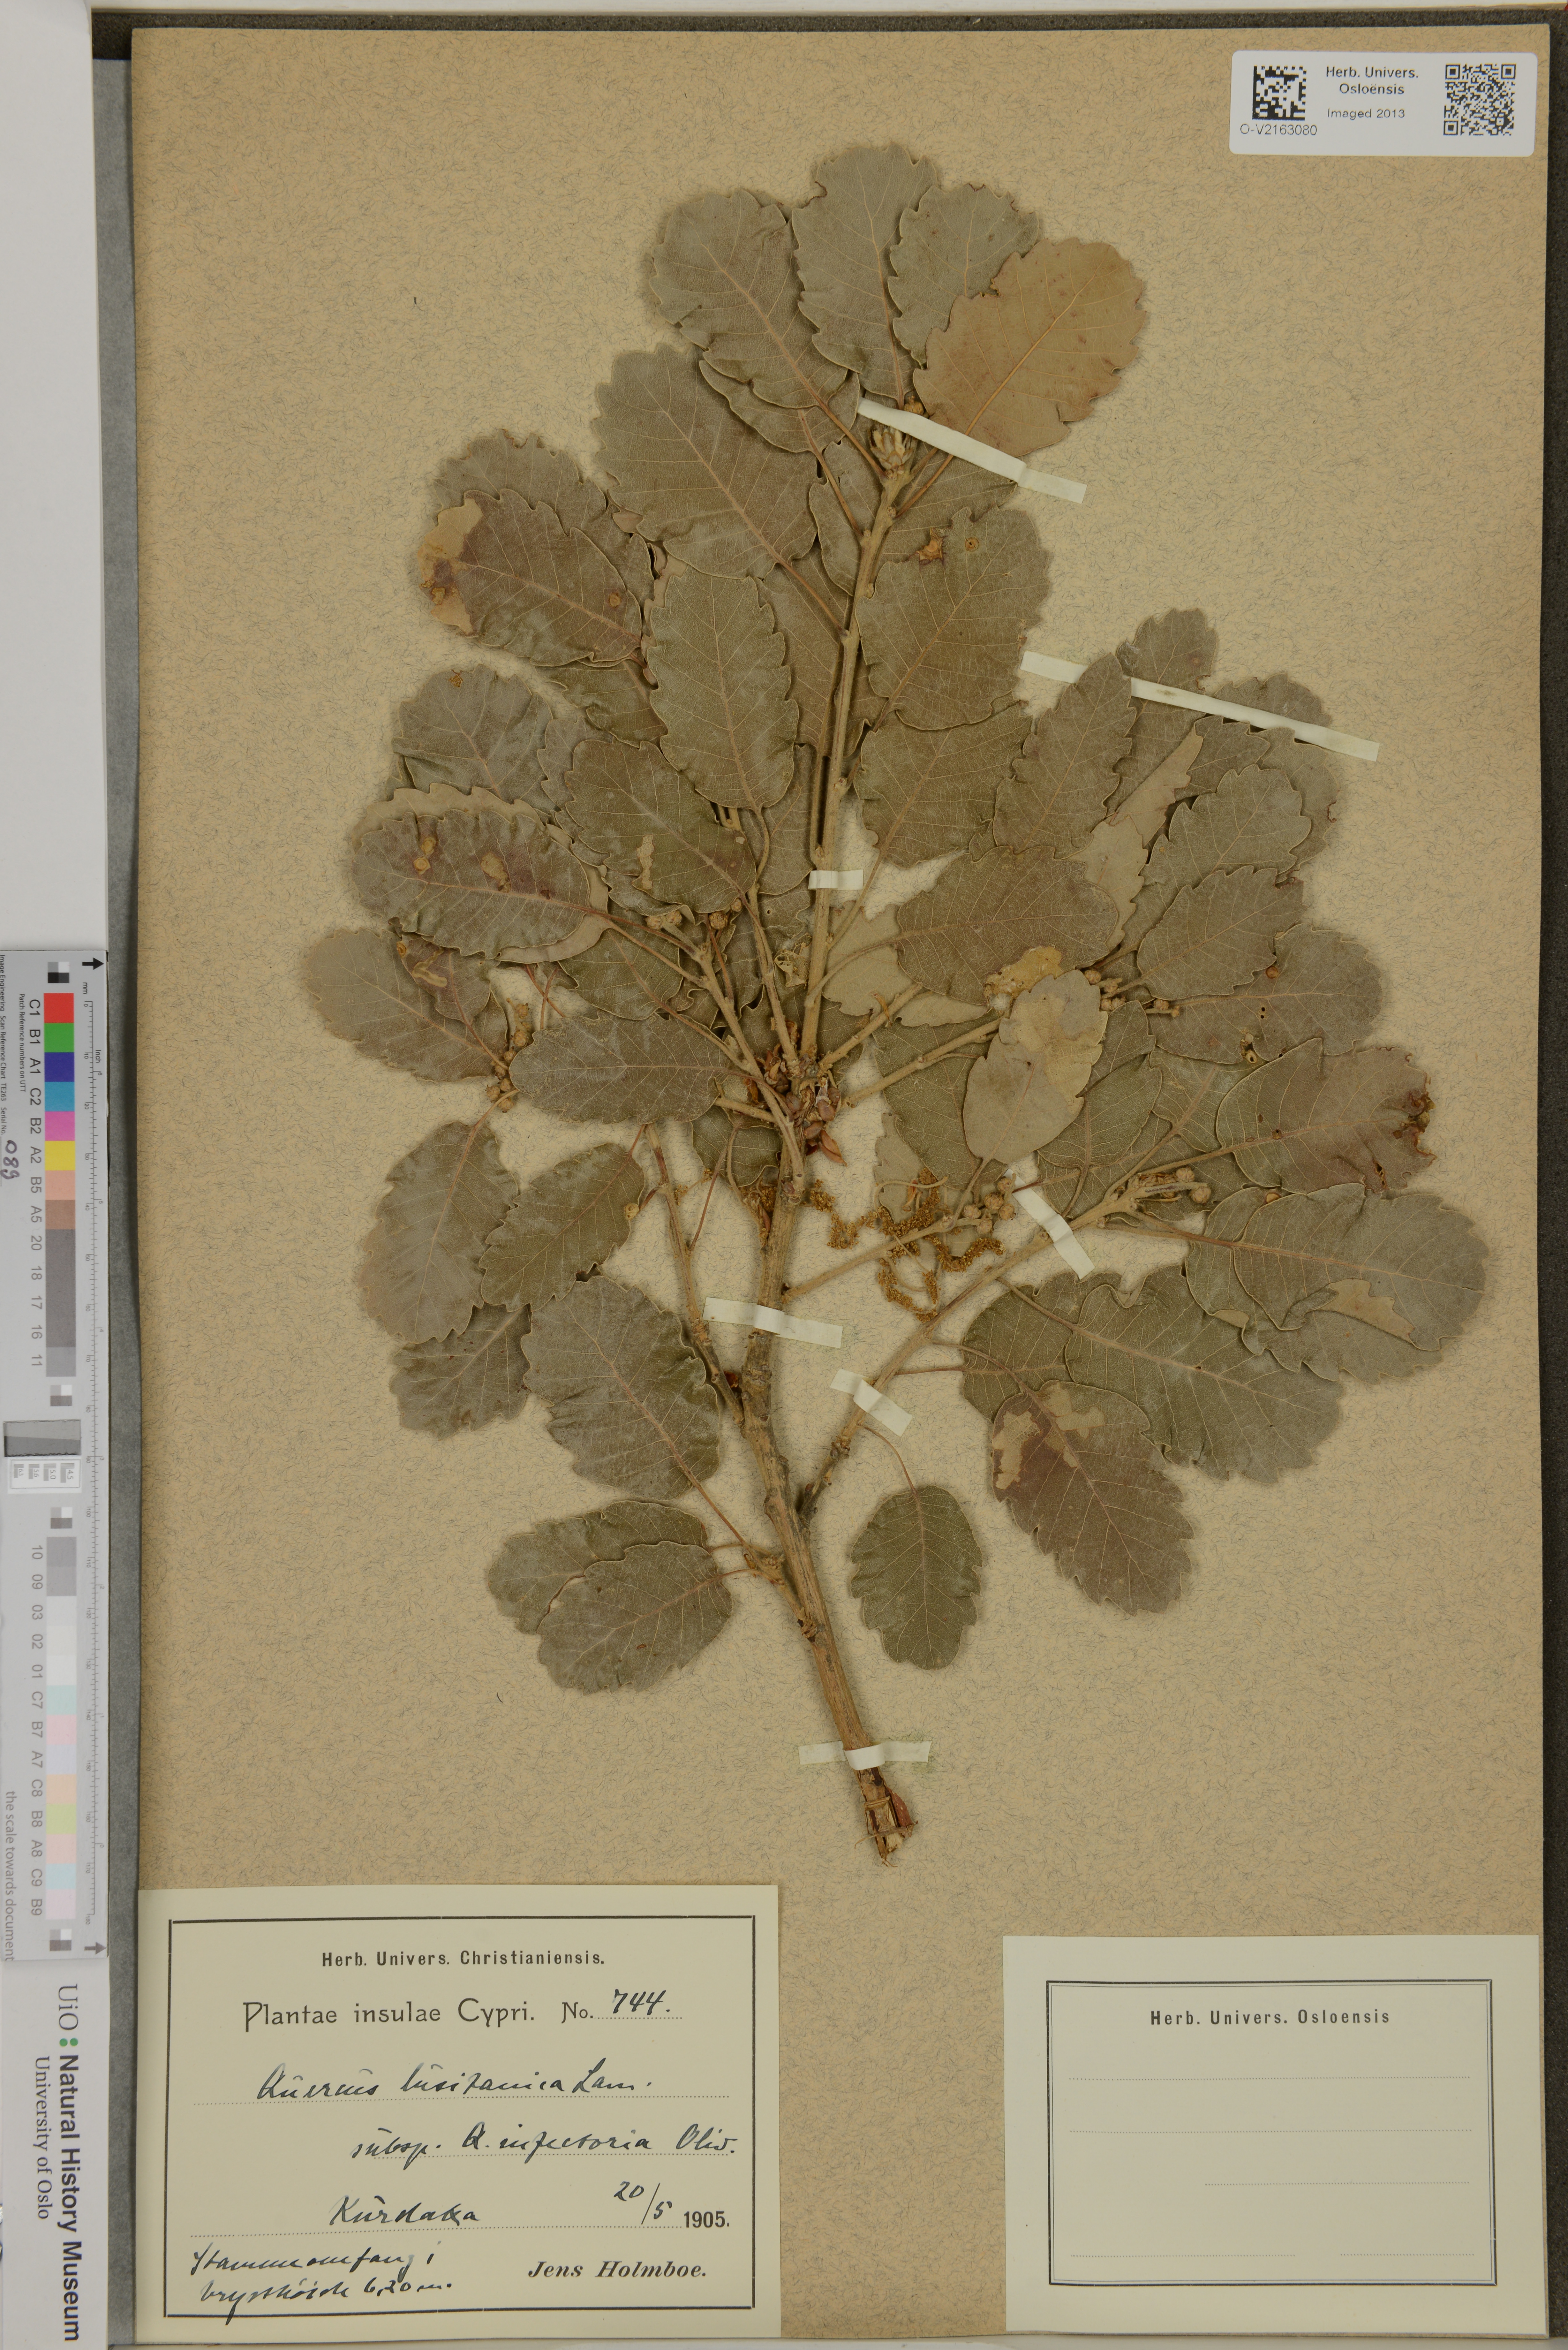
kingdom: Plantae
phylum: Tracheophyta
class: Magnoliopsida
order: Fagales
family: Fagaceae
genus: Quercus
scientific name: Quercus lusitanica
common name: Scrub gall oak
